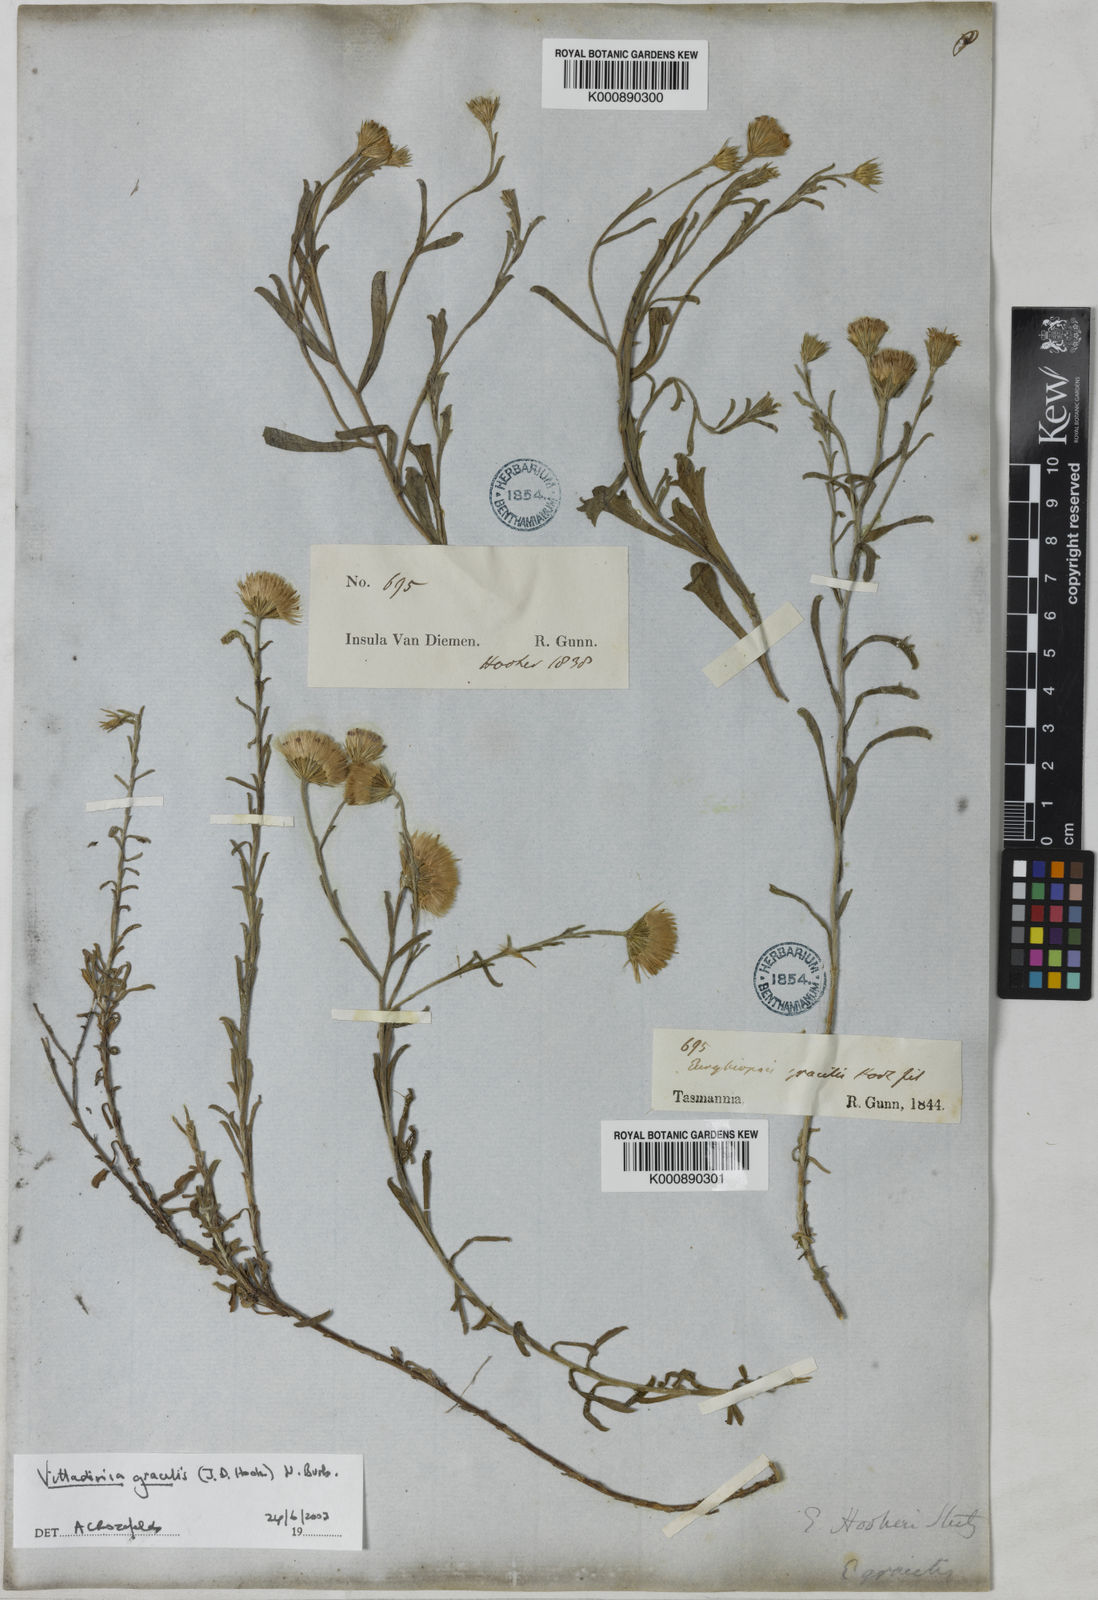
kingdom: Plantae
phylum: Tracheophyta
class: Magnoliopsida
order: Asterales
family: Asteraceae
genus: Vittadinia
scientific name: Vittadinia gracilis
